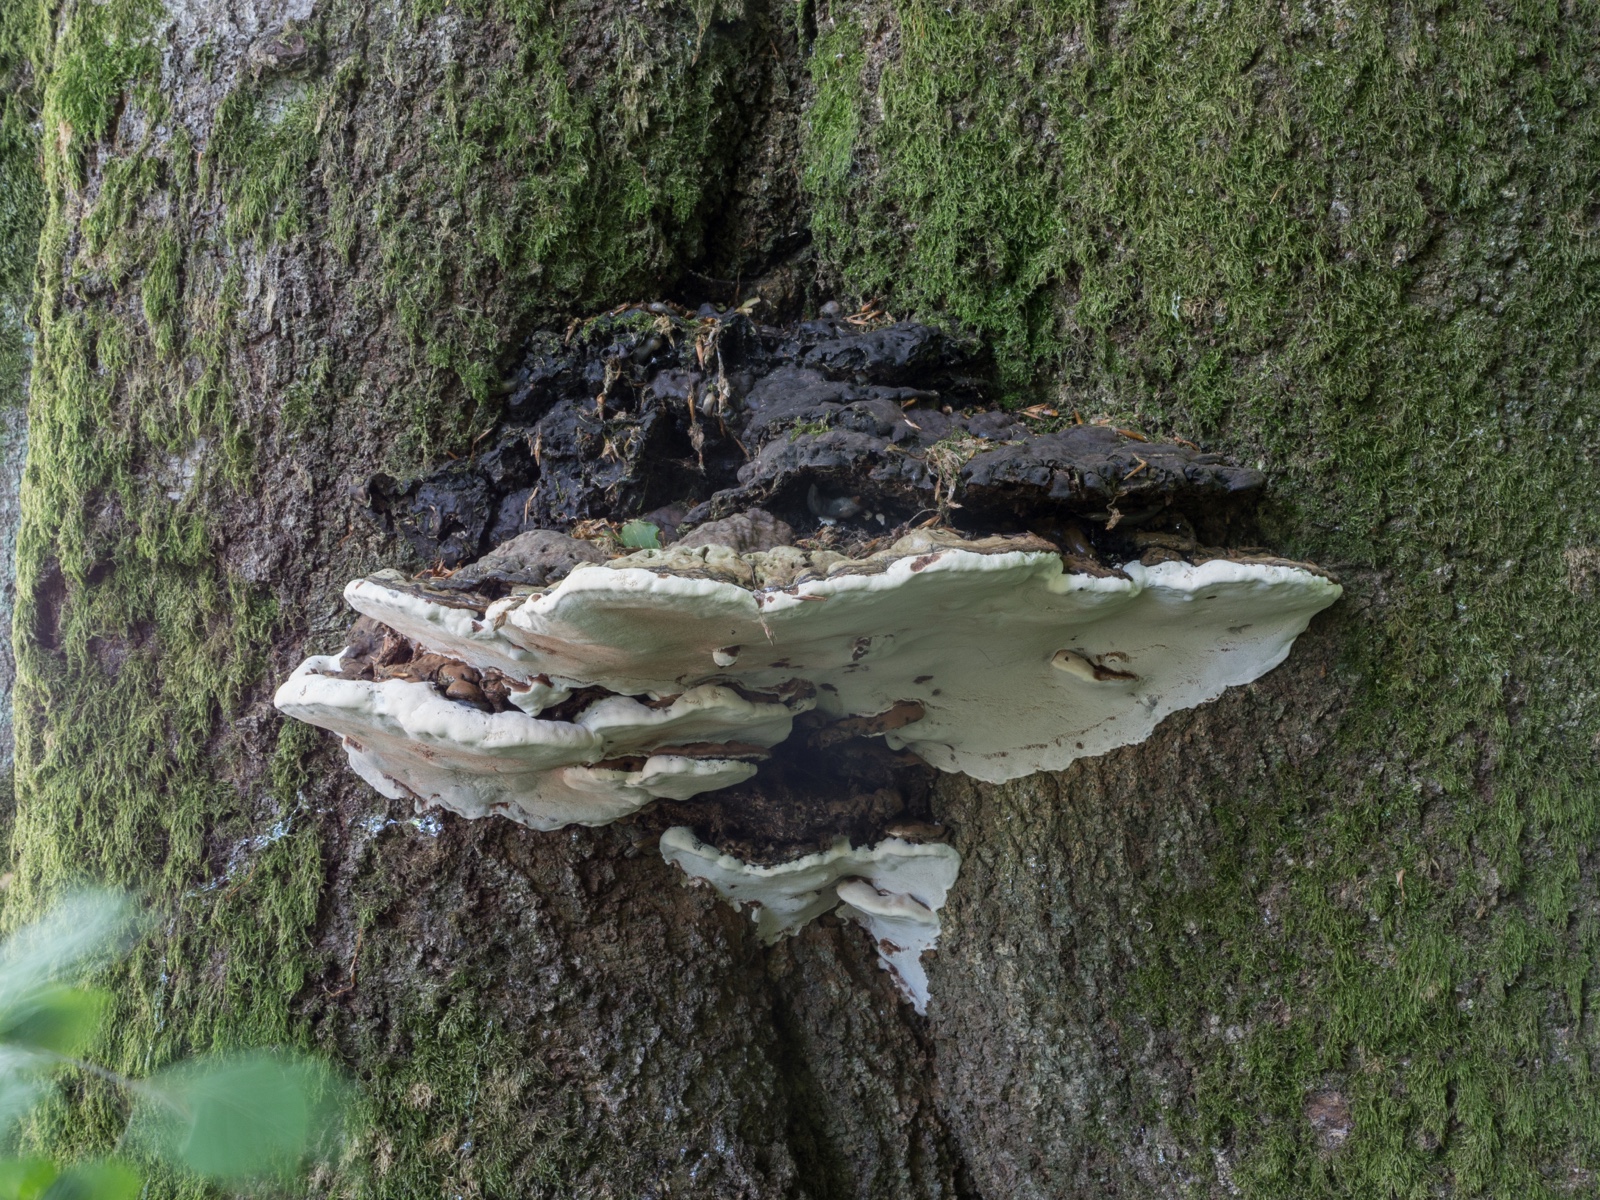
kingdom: Fungi
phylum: Basidiomycota
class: Agaricomycetes
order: Polyporales
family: Polyporaceae
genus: Ganoderma
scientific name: Ganoderma adspersum
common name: grov lakporesvamp
